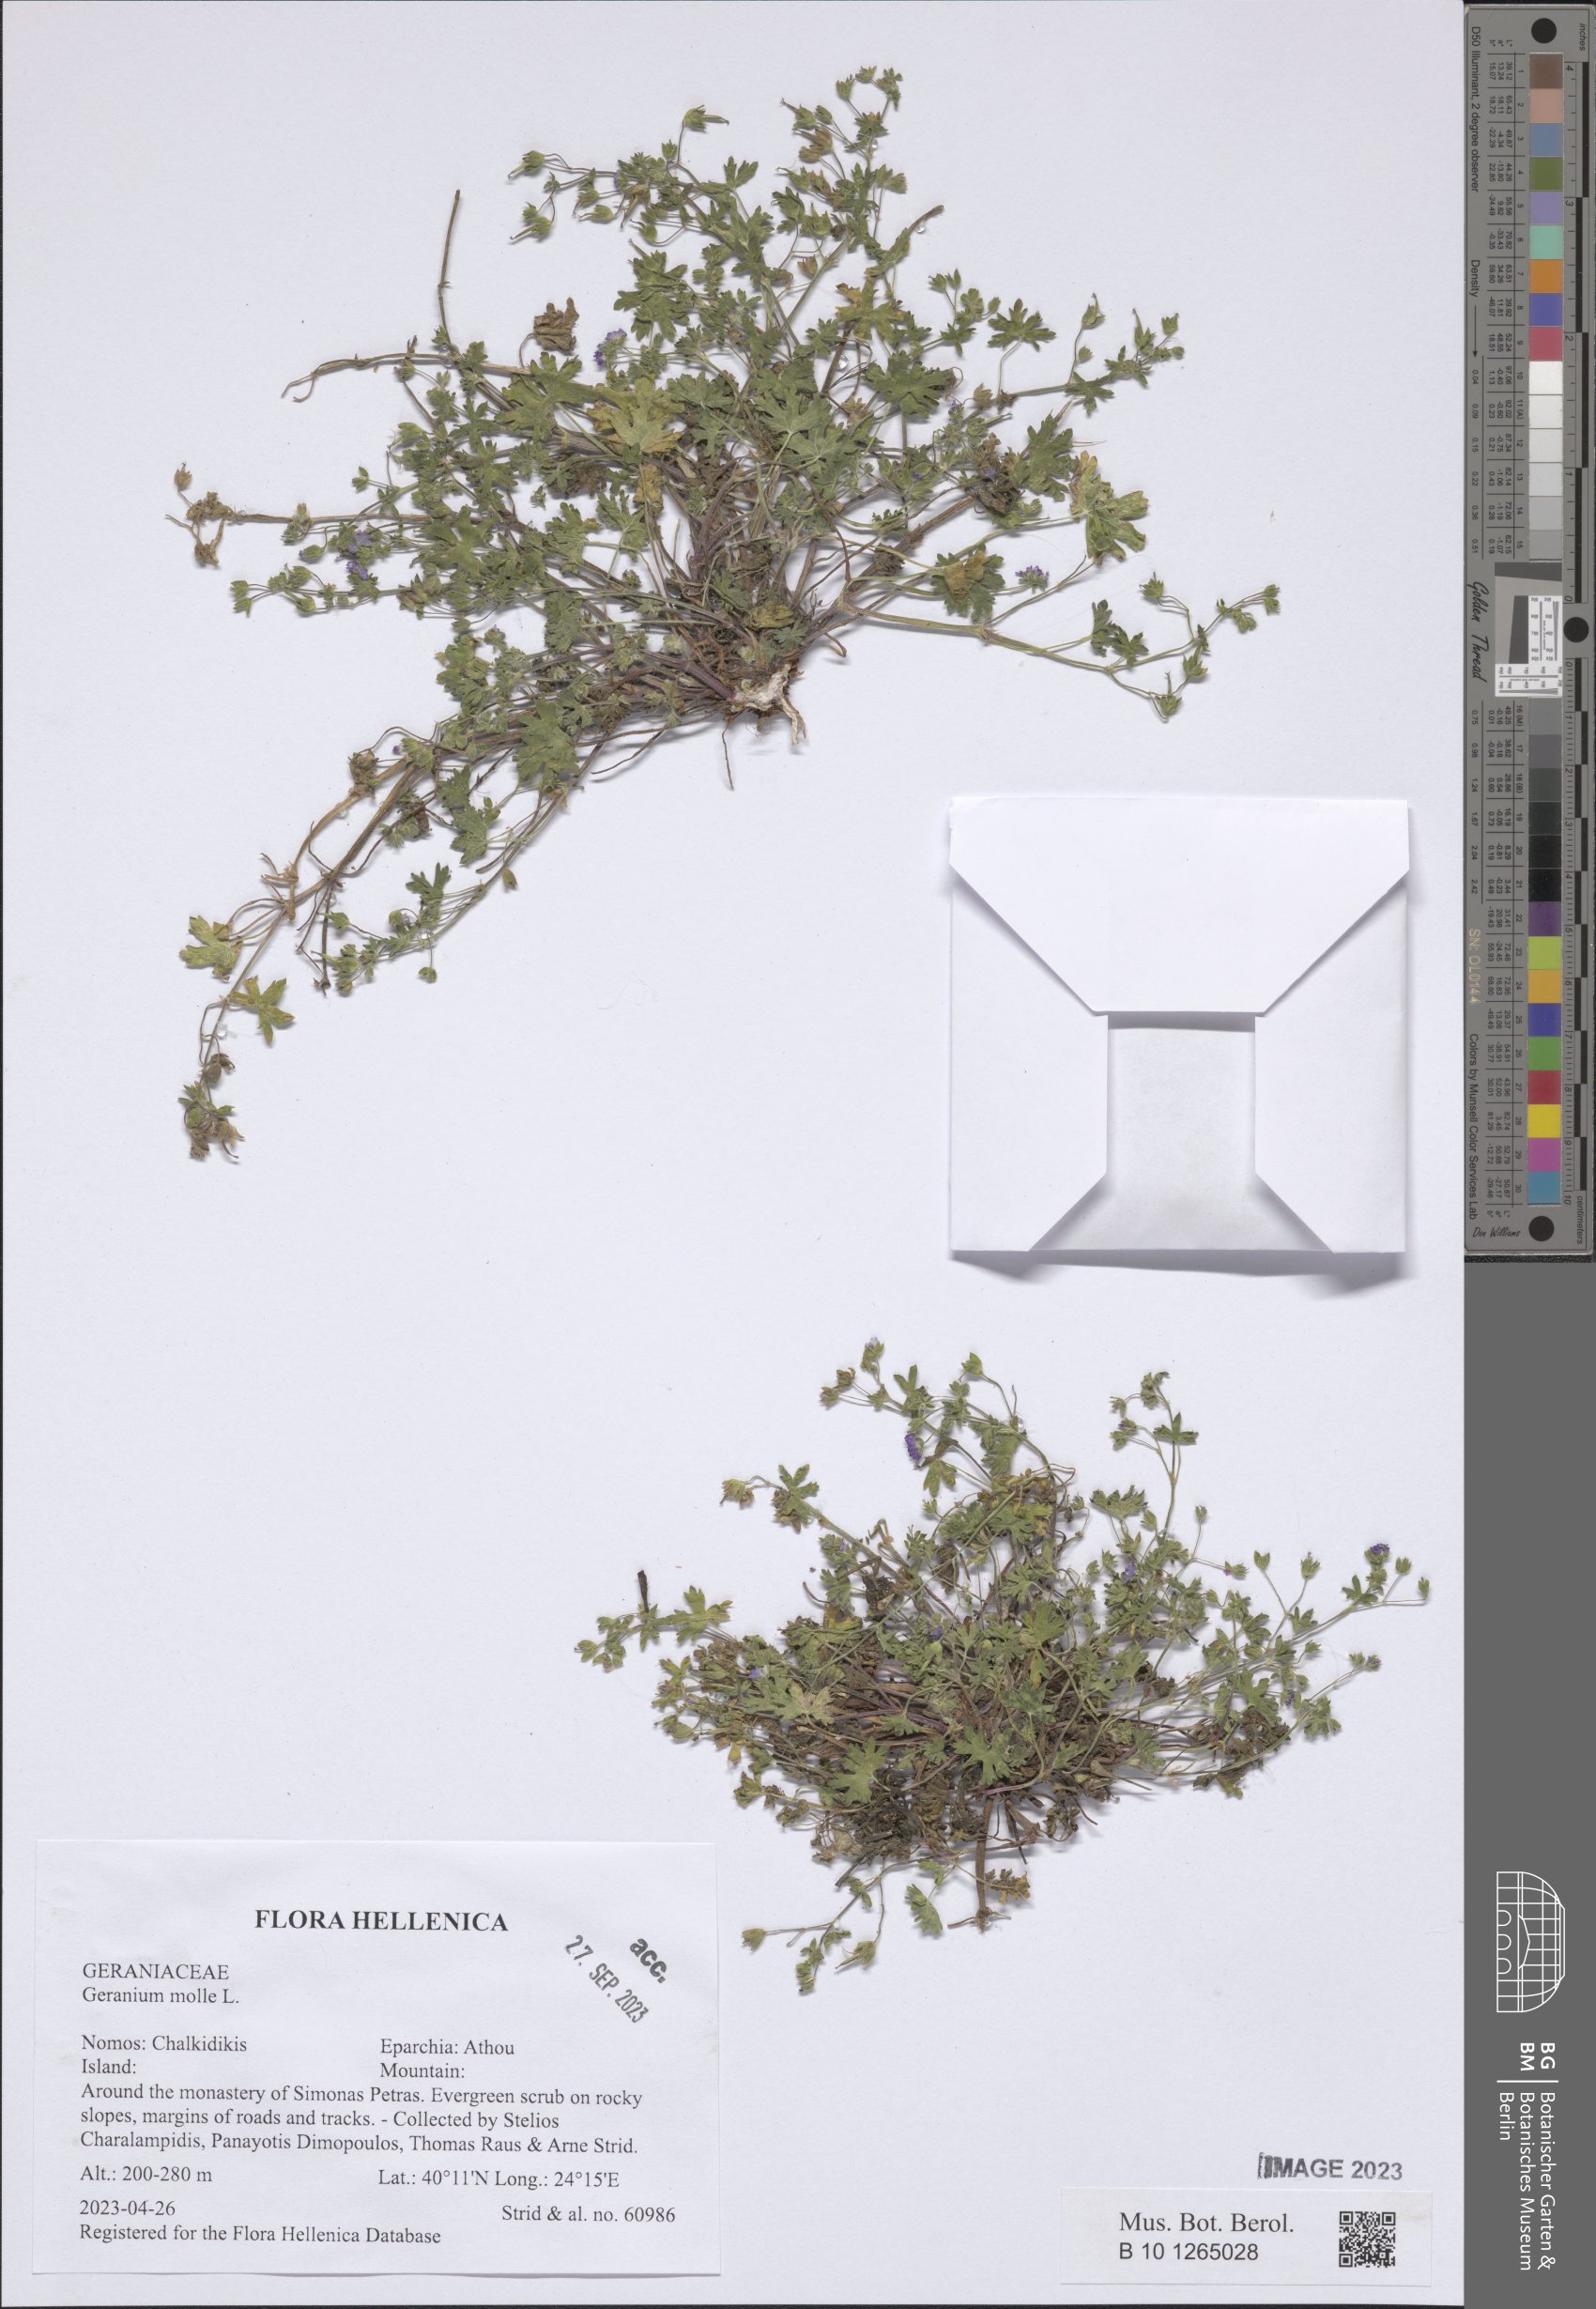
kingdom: Plantae
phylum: Tracheophyta
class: Magnoliopsida
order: Geraniales
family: Geraniaceae
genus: Geranium
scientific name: Geranium molle
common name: Dove's-foot crane's-bill
